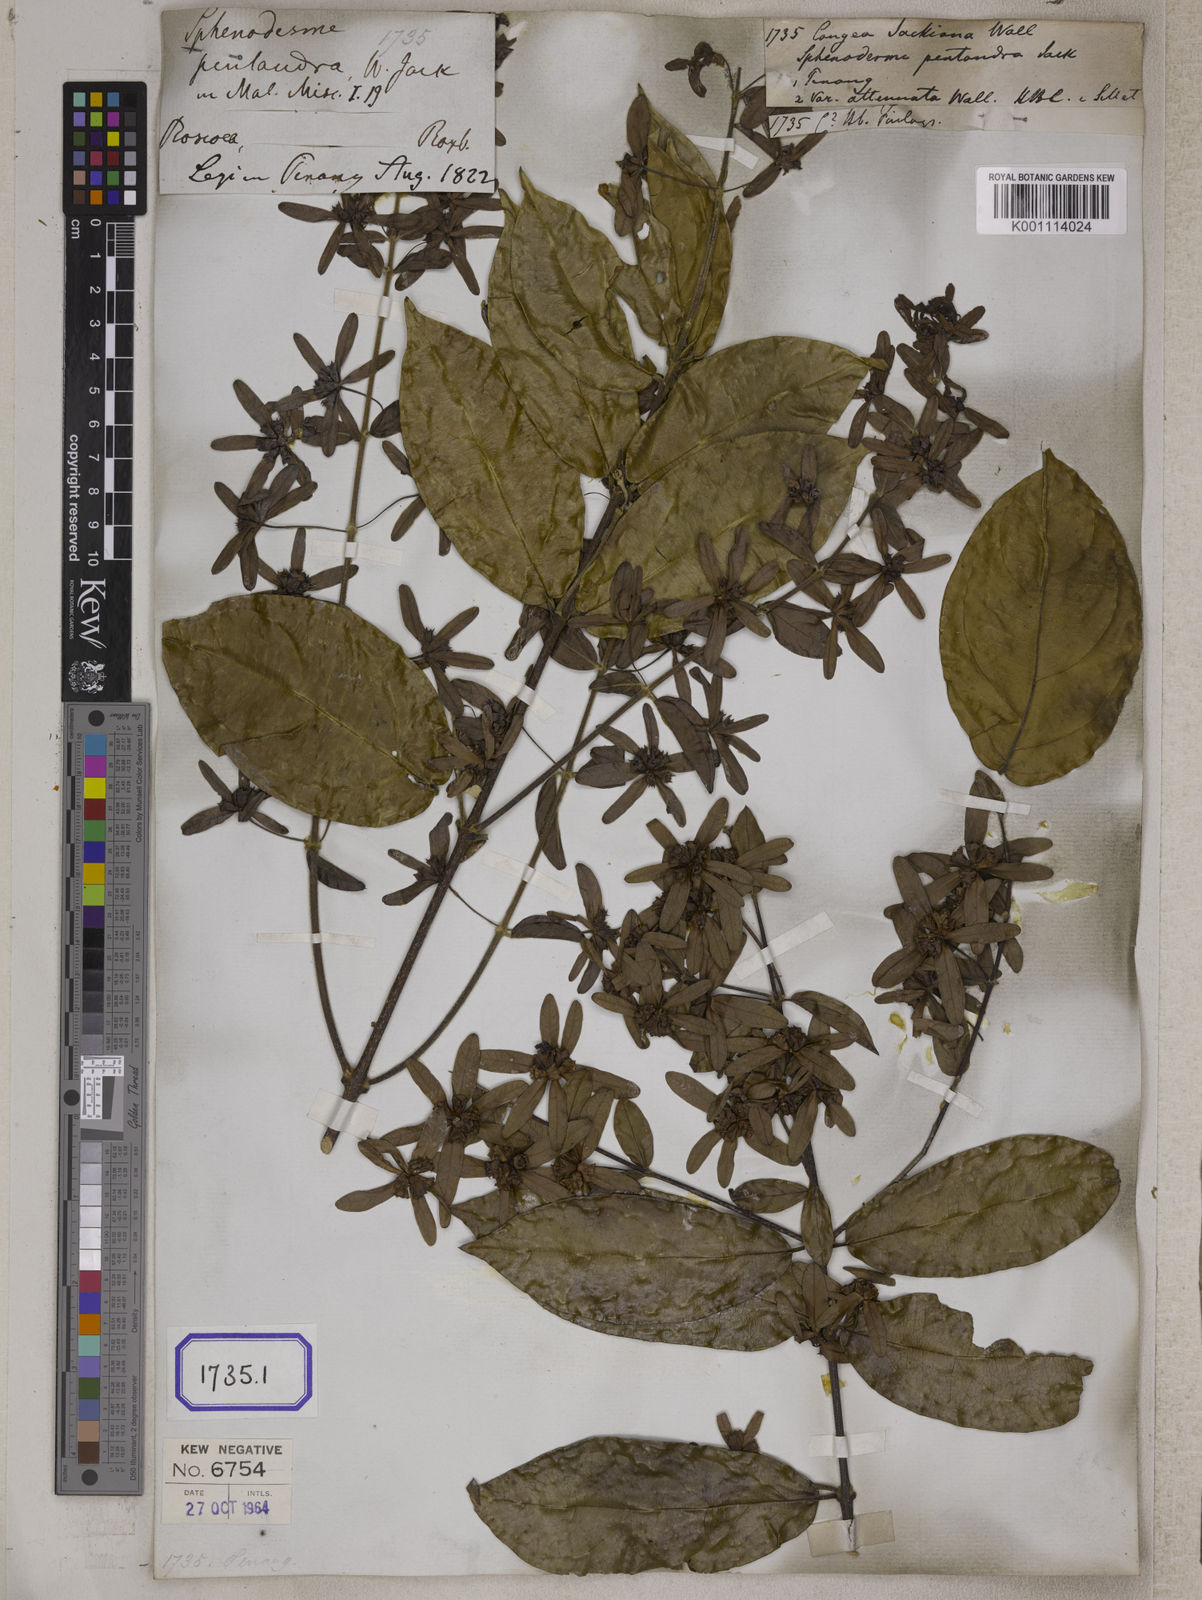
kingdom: Plantae
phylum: Tracheophyta
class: Magnoliopsida
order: Lamiales
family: Lamiaceae
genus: Sphenodesme
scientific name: Sphenodesme pentandra
